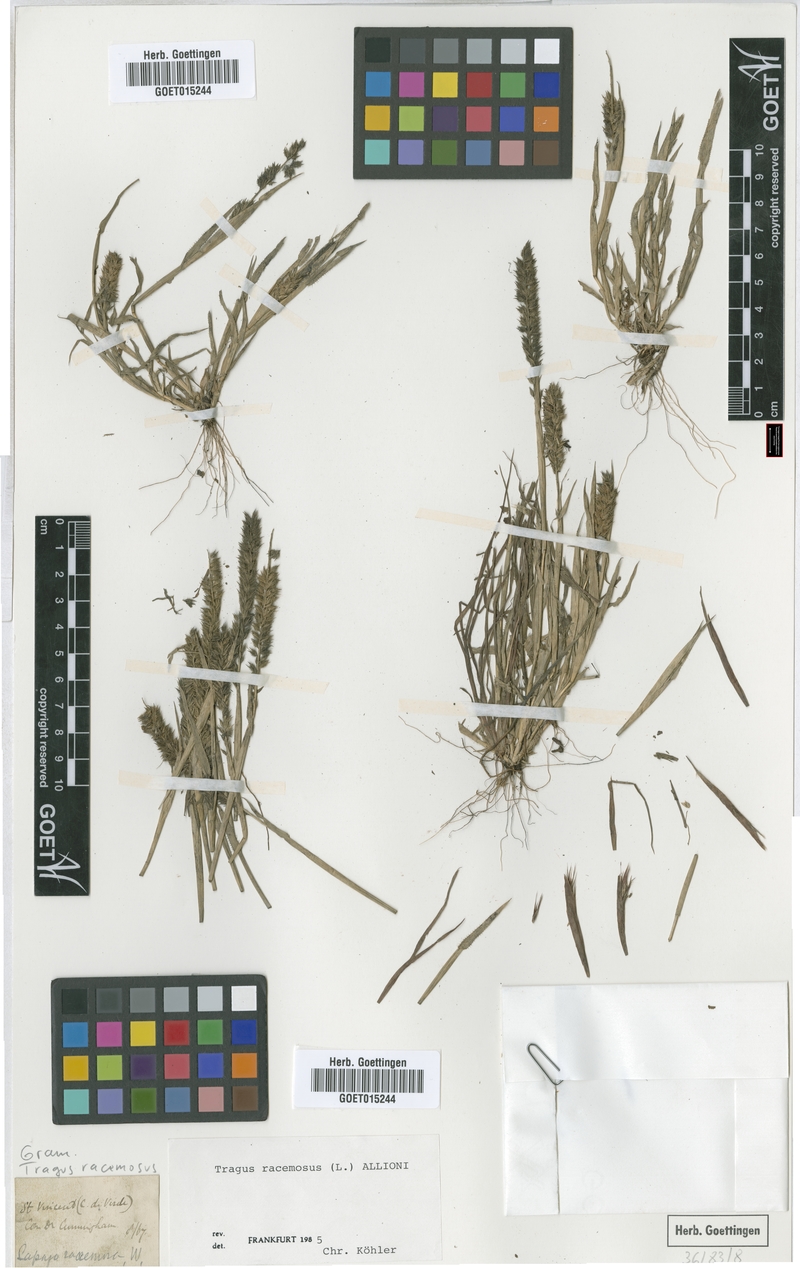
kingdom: Plantae
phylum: Tracheophyta
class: Liliopsida
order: Poales
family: Poaceae
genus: Tragus
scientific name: Tragus racemosus
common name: European bur-grass
